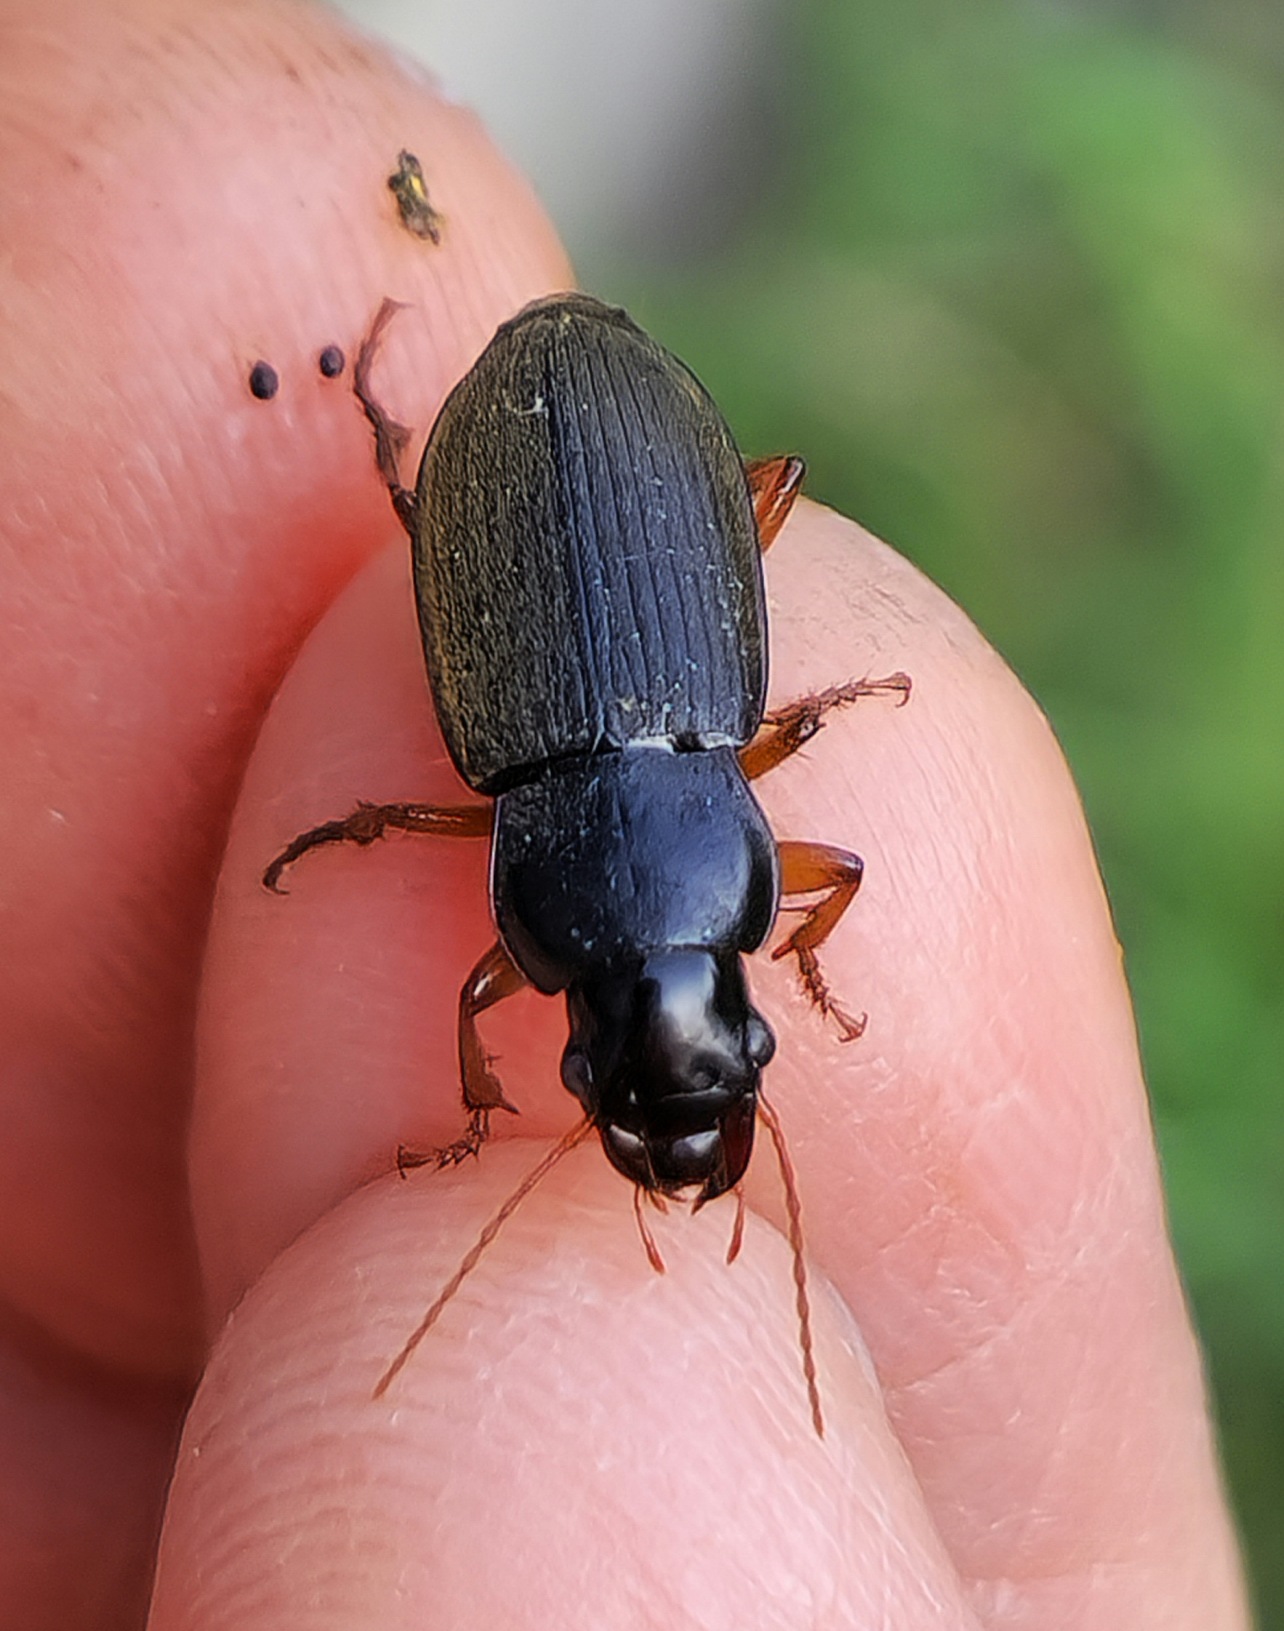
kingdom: Animalia
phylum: Arthropoda
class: Insecta
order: Coleoptera
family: Carabidae
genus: Harpalus
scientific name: Harpalus rufipes
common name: Håret markløber
